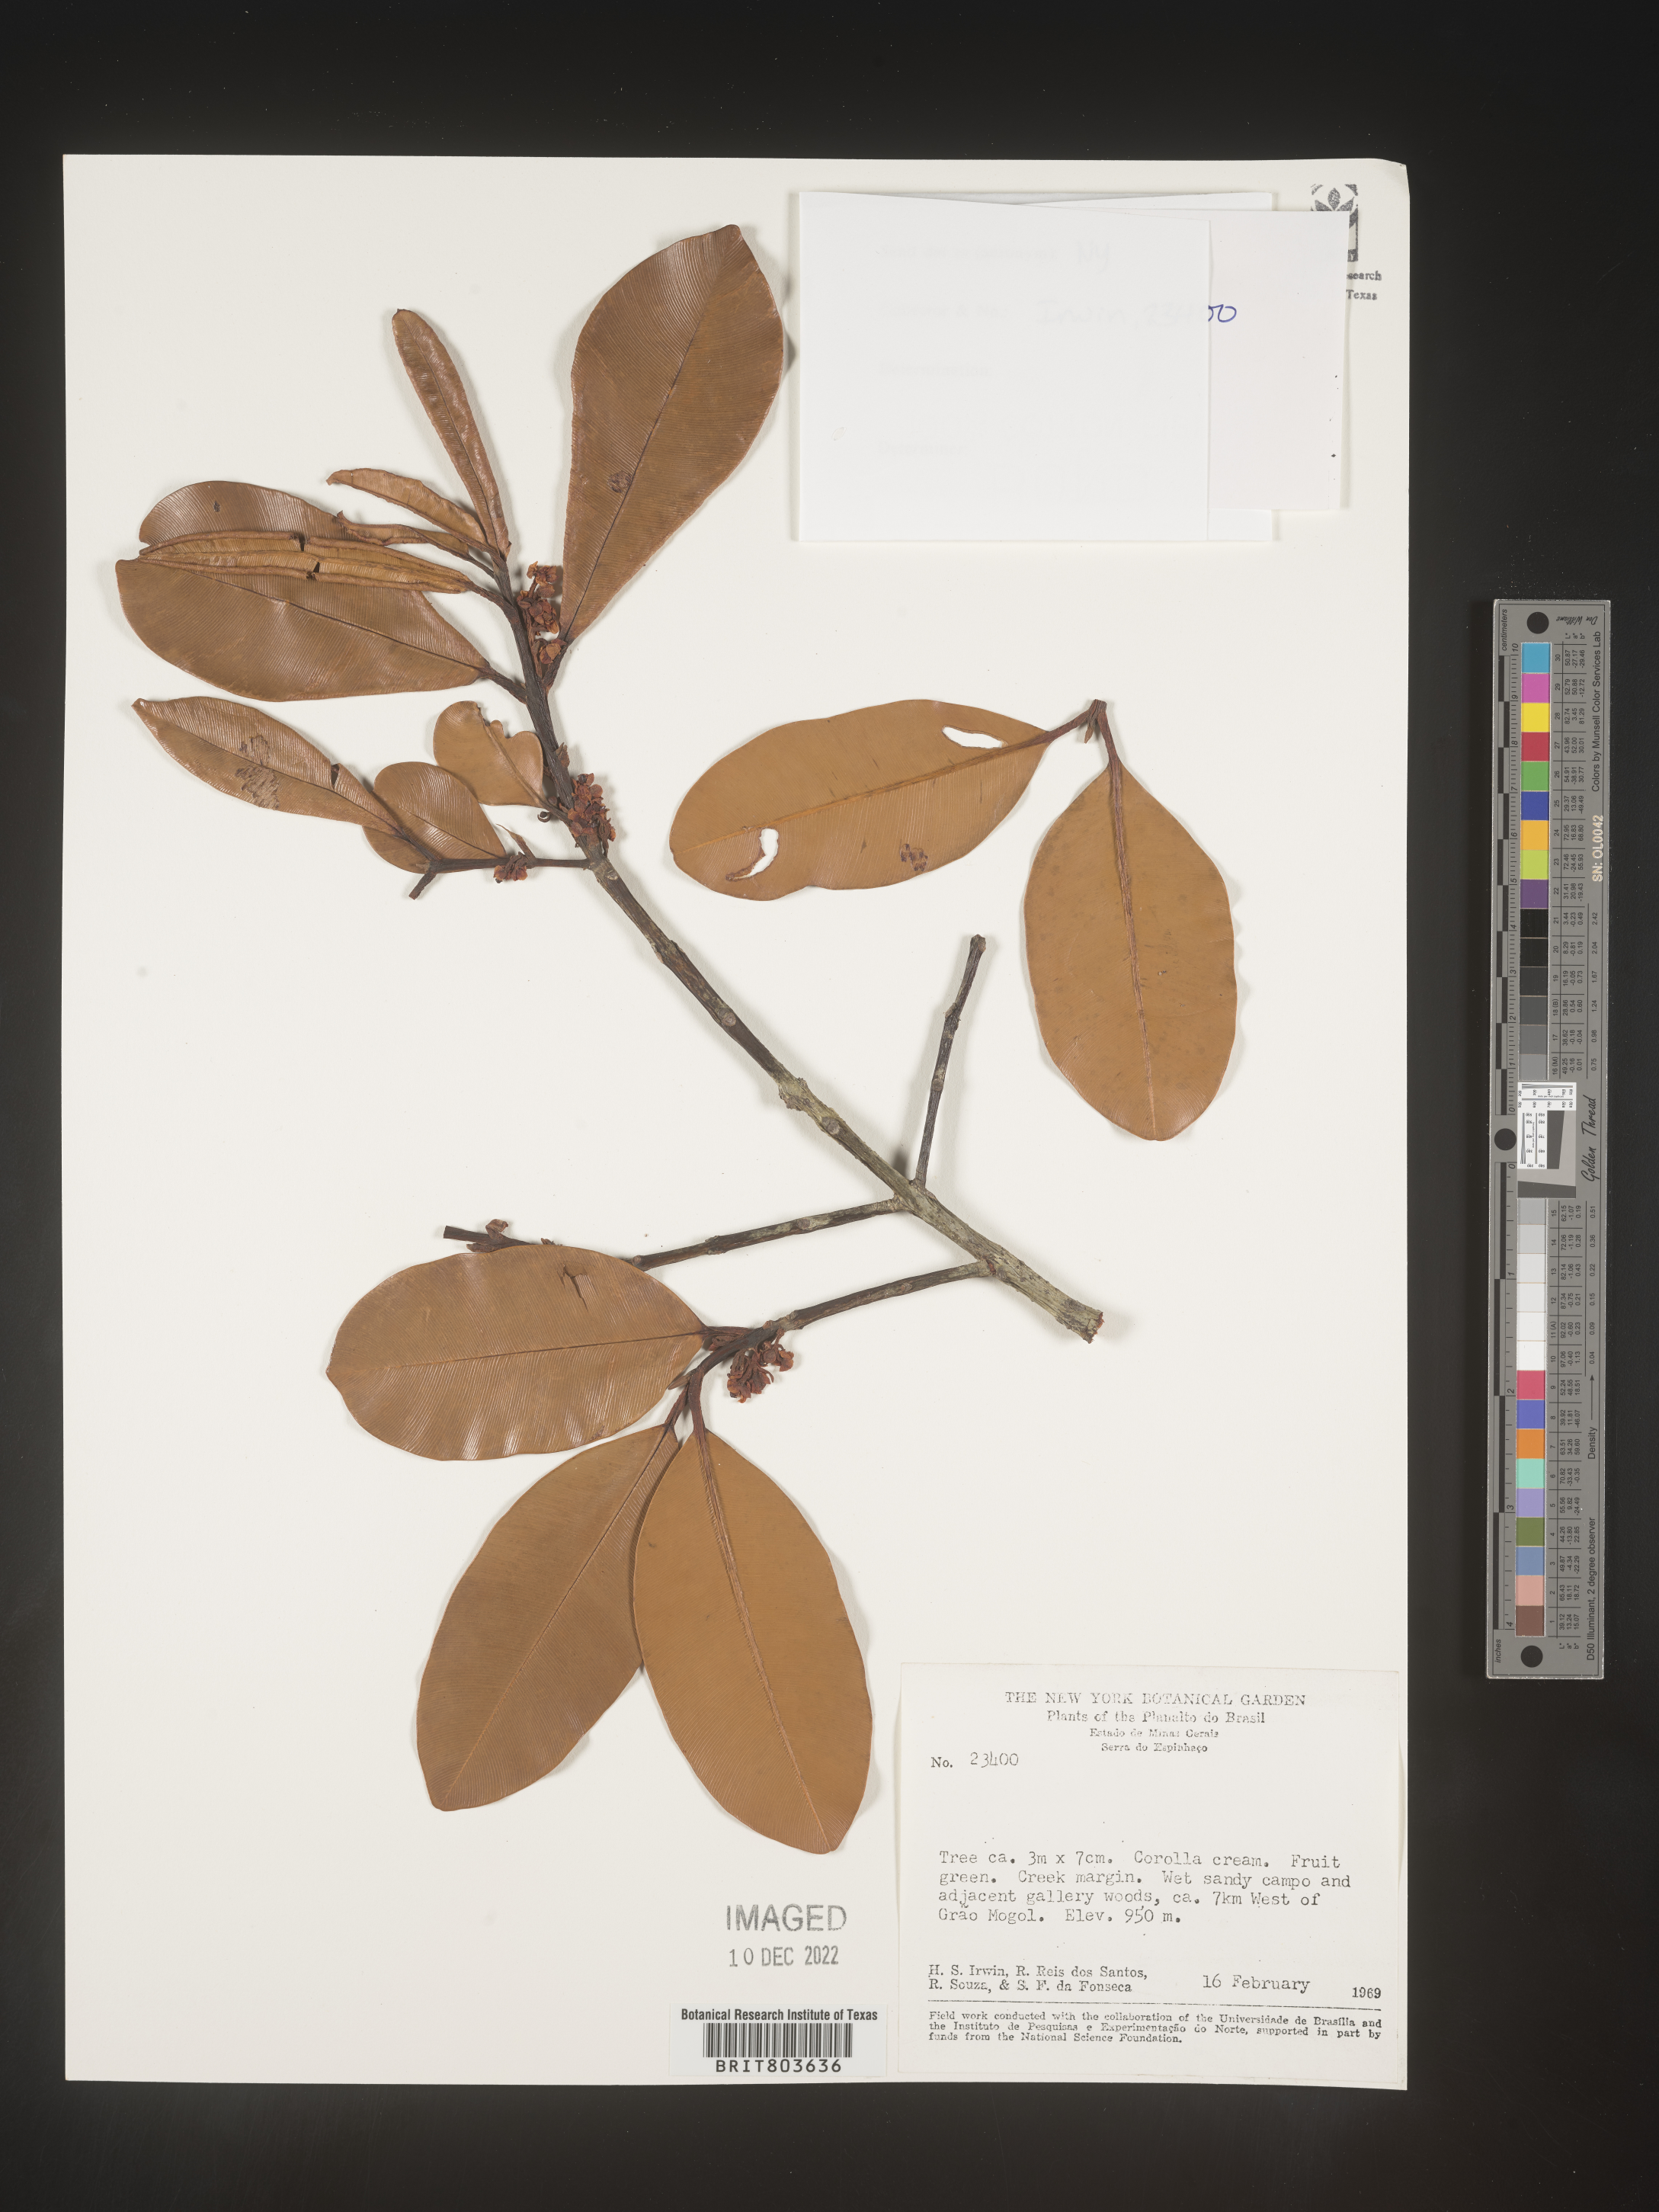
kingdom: Plantae
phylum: Tracheophyta
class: Magnoliopsida
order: Malpighiales
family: Clusiaceae
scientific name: Clusiaceae
